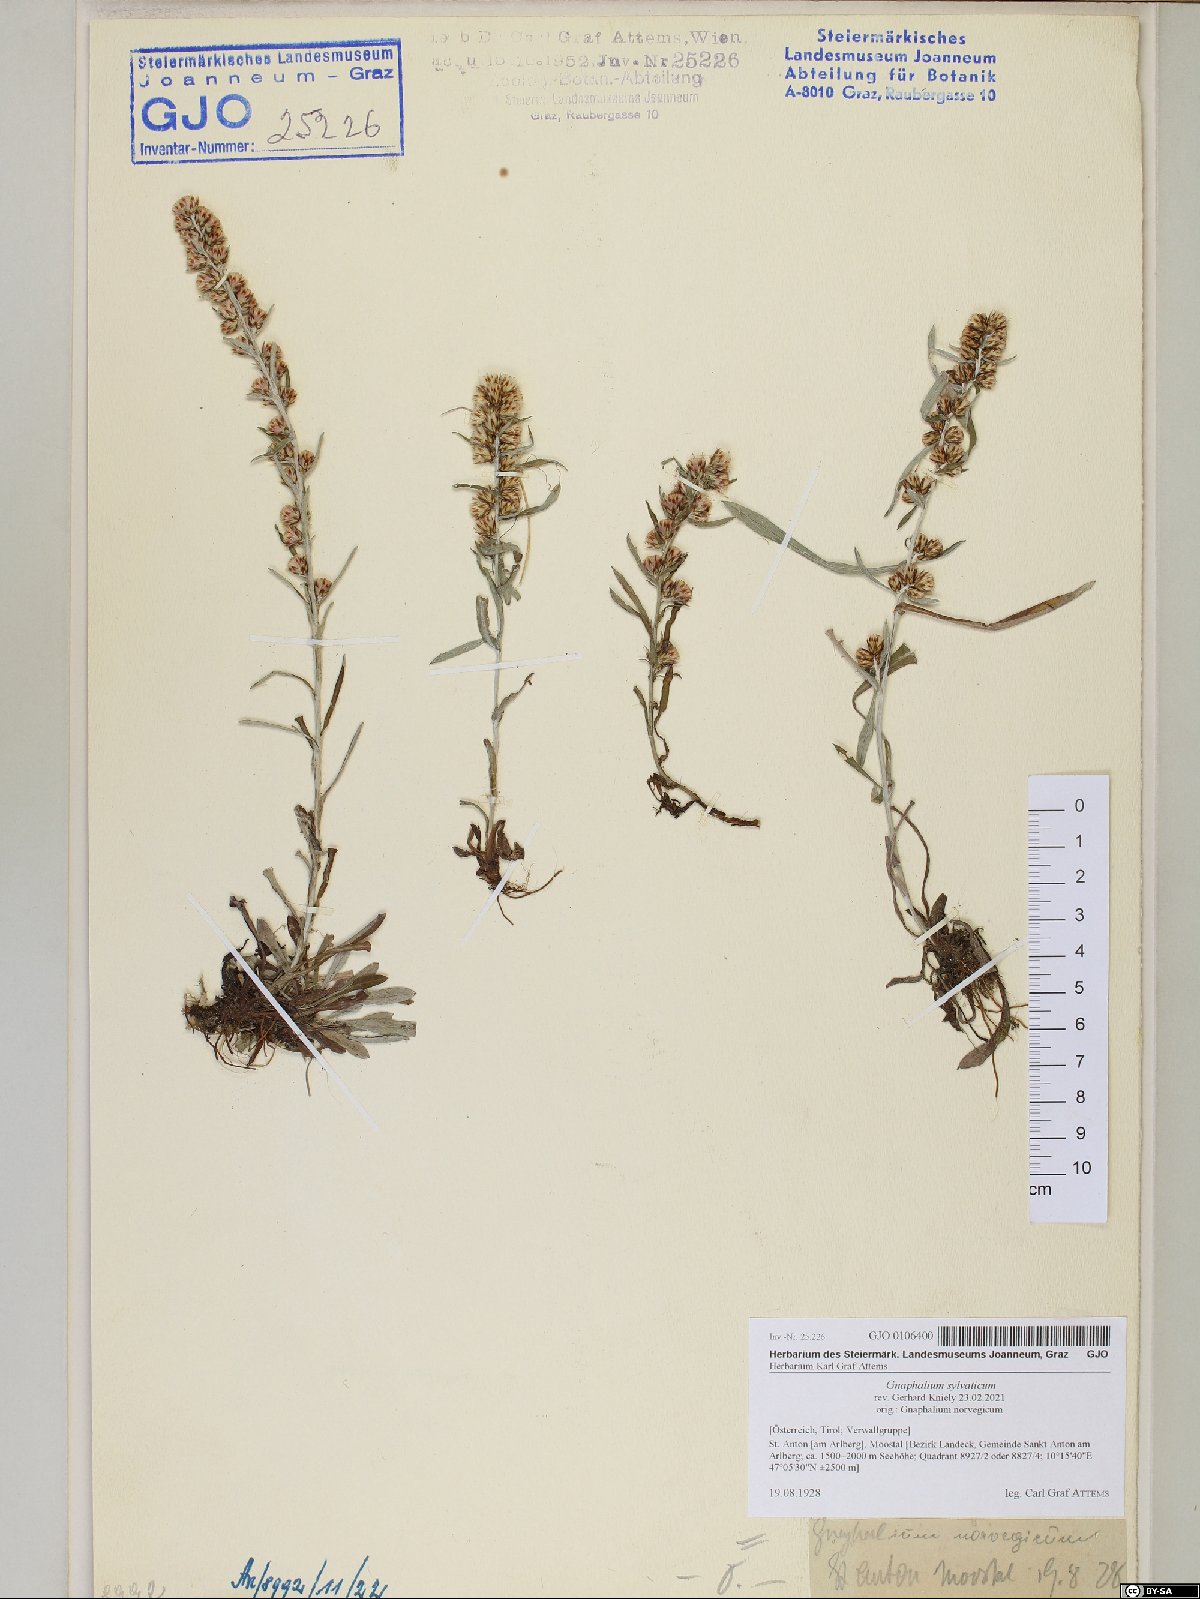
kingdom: Plantae
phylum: Tracheophyta
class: Magnoliopsida
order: Asterales
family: Asteraceae
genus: Omalotheca
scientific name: Omalotheca sylvatica
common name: Heath cudweed
